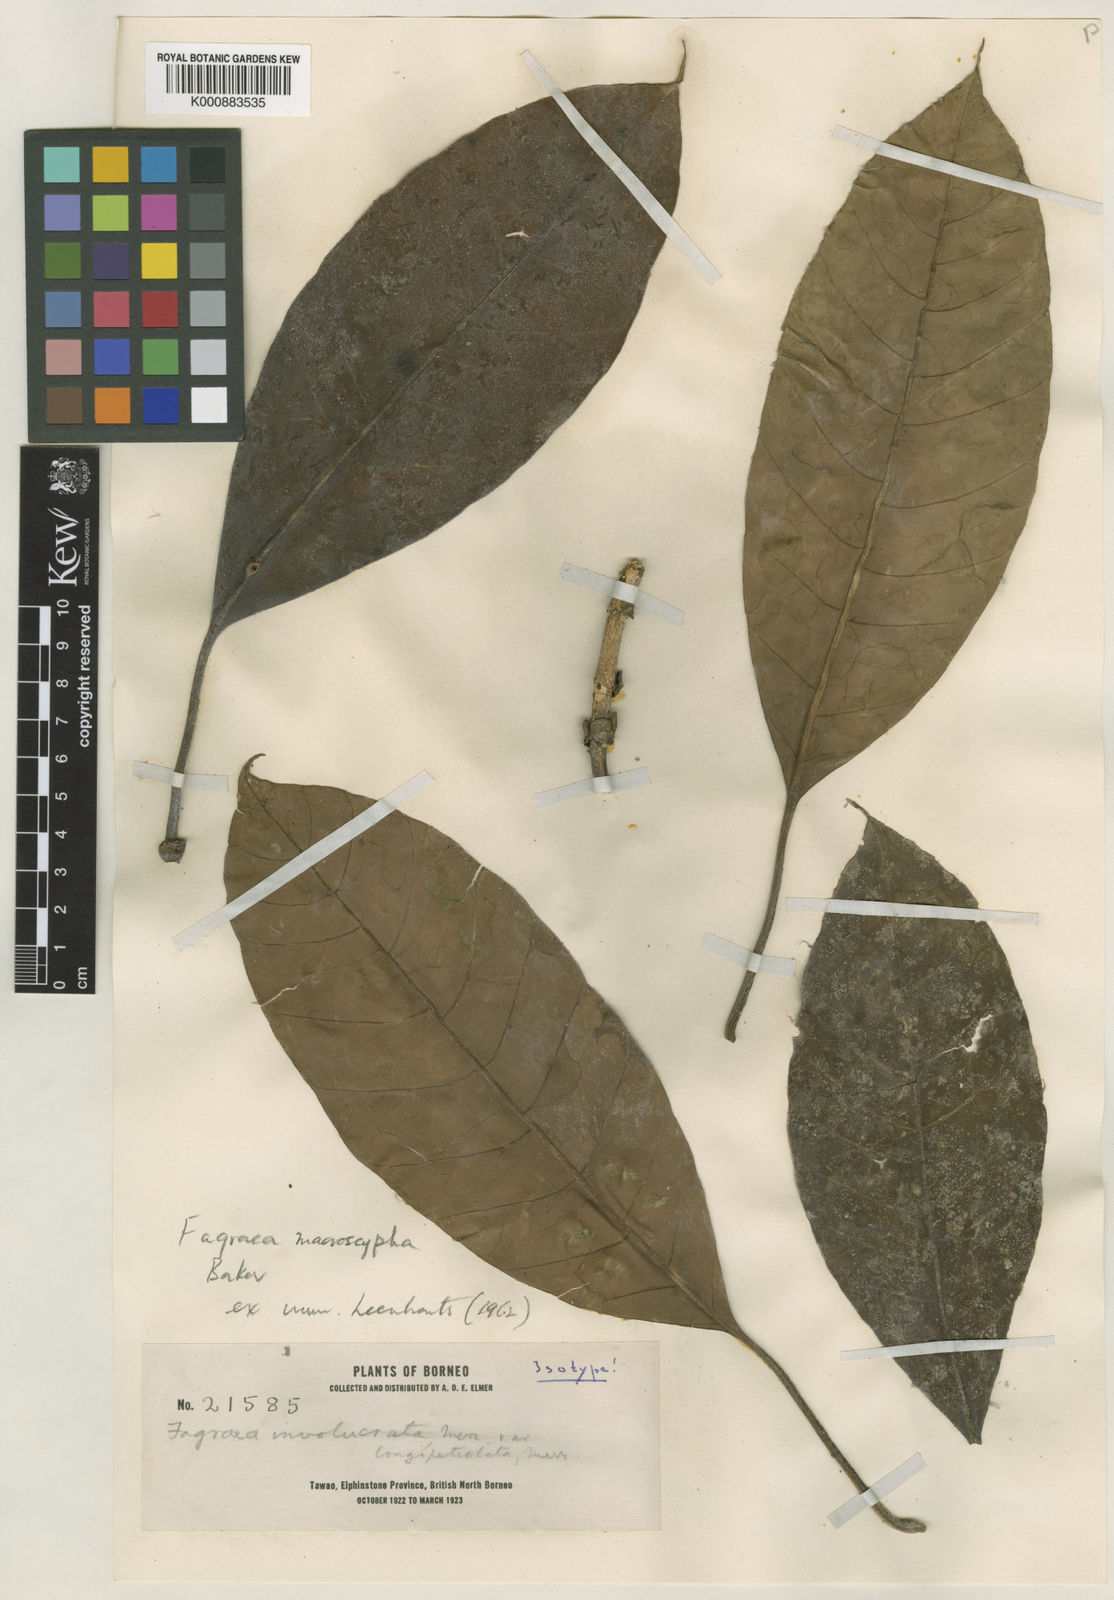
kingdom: Plantae
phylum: Tracheophyta
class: Magnoliopsida
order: Gentianales
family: Gentianaceae
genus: Fagraea
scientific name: Fagraea macroscypha
